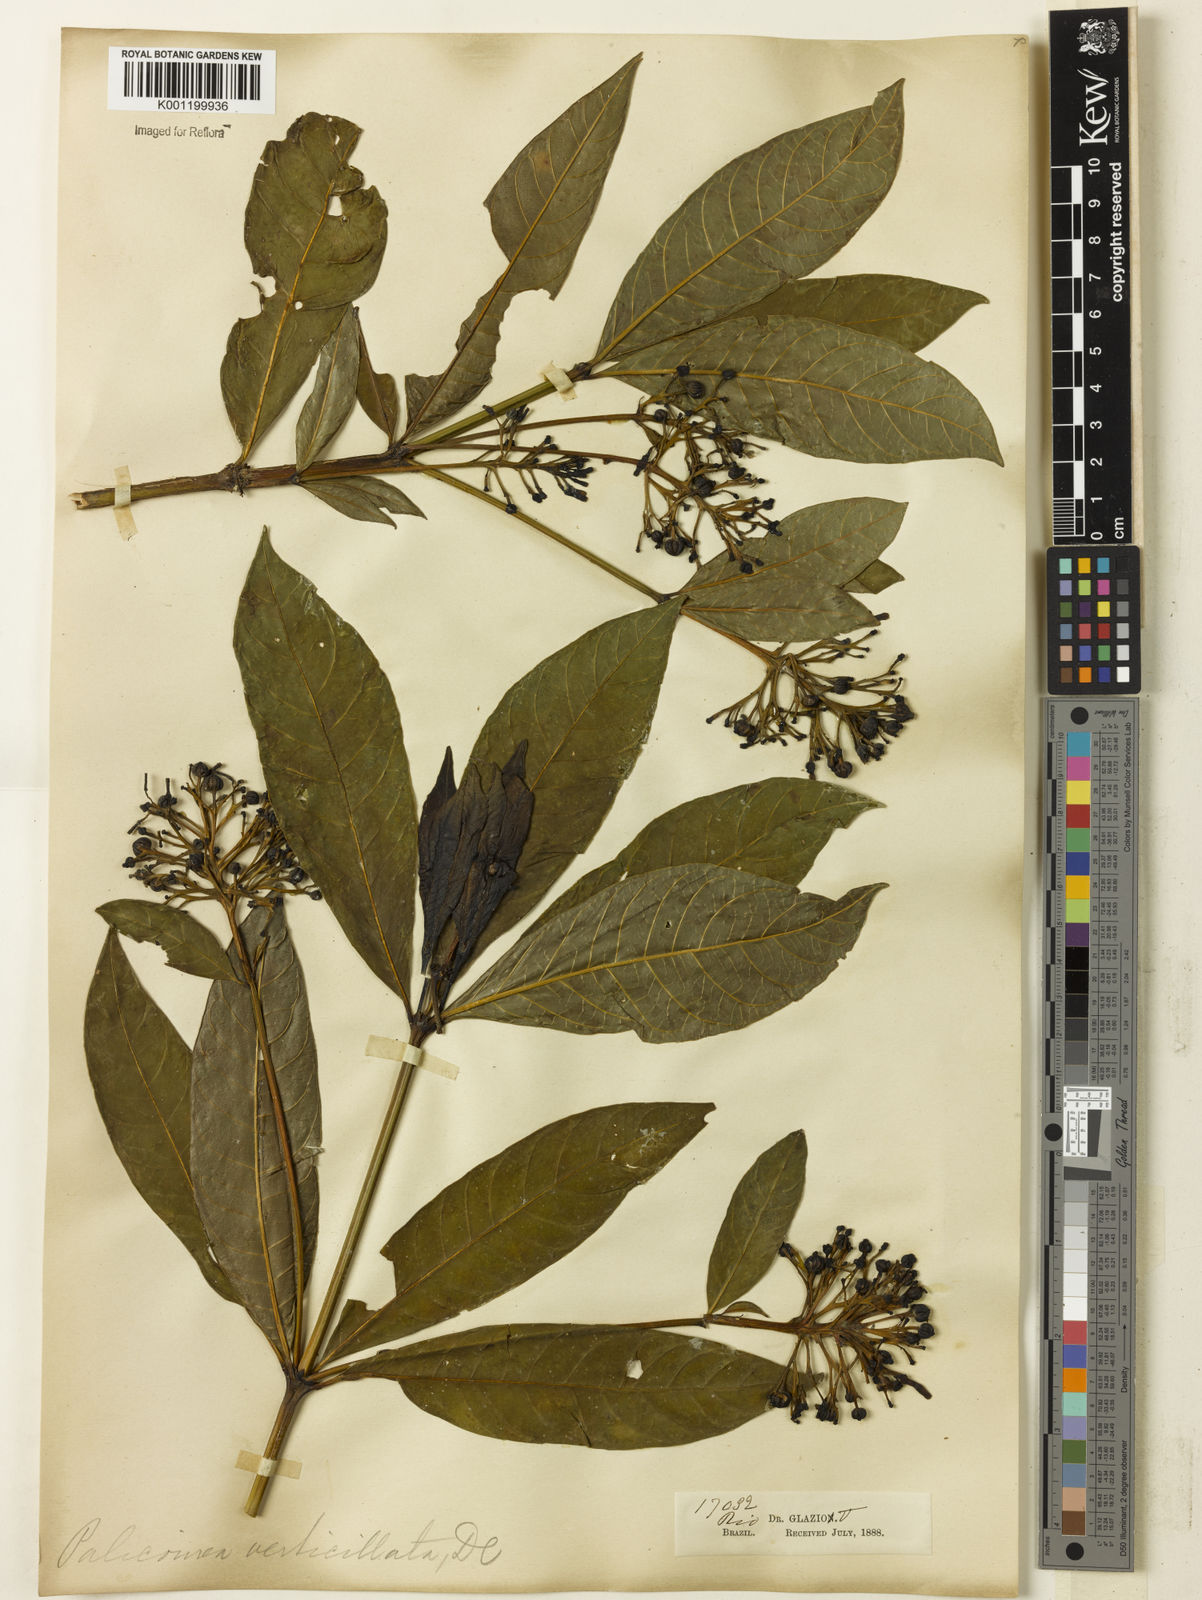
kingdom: Plantae
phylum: Tracheophyta
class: Magnoliopsida
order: Gentianales
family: Rubiaceae
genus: Palicourea
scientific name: Palicourea tetraphylla
